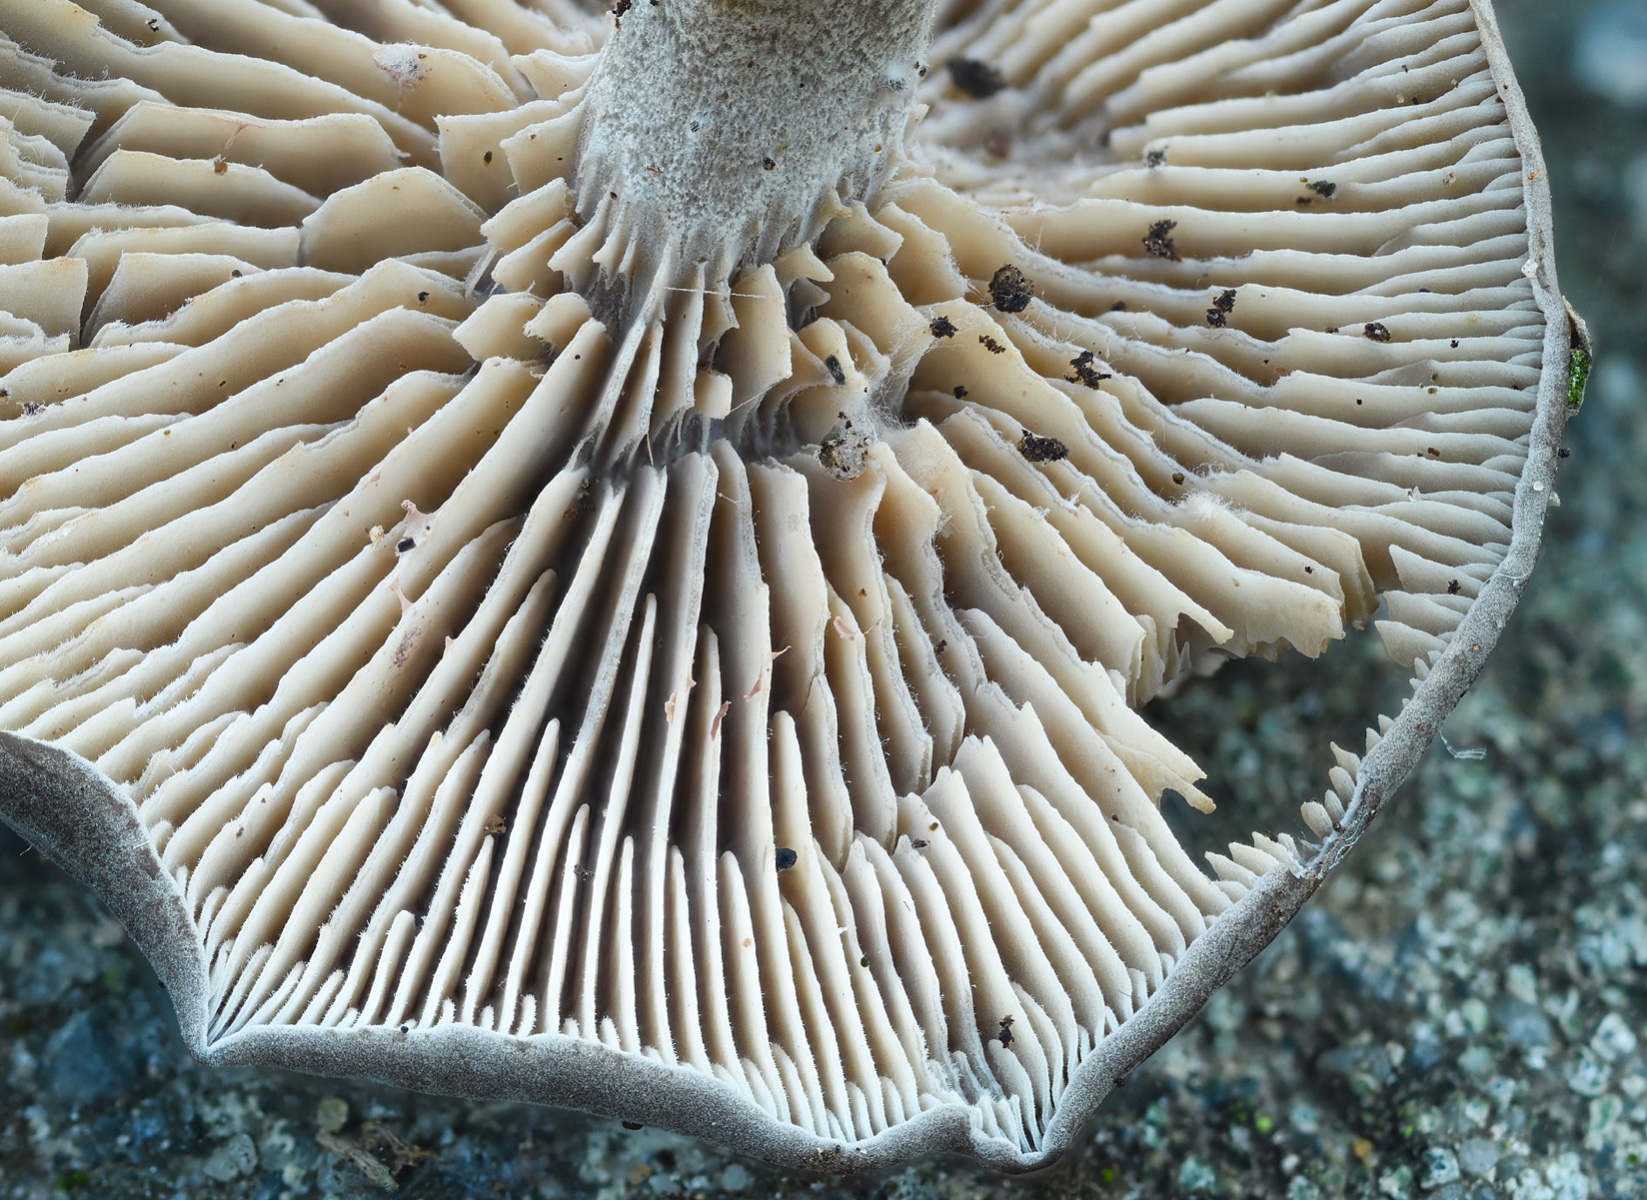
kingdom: Fungi
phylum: Basidiomycota
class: Agaricomycetes
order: Agaricales
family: Entolomataceae
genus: Rhodocybe
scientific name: Rhodocybe formosa
